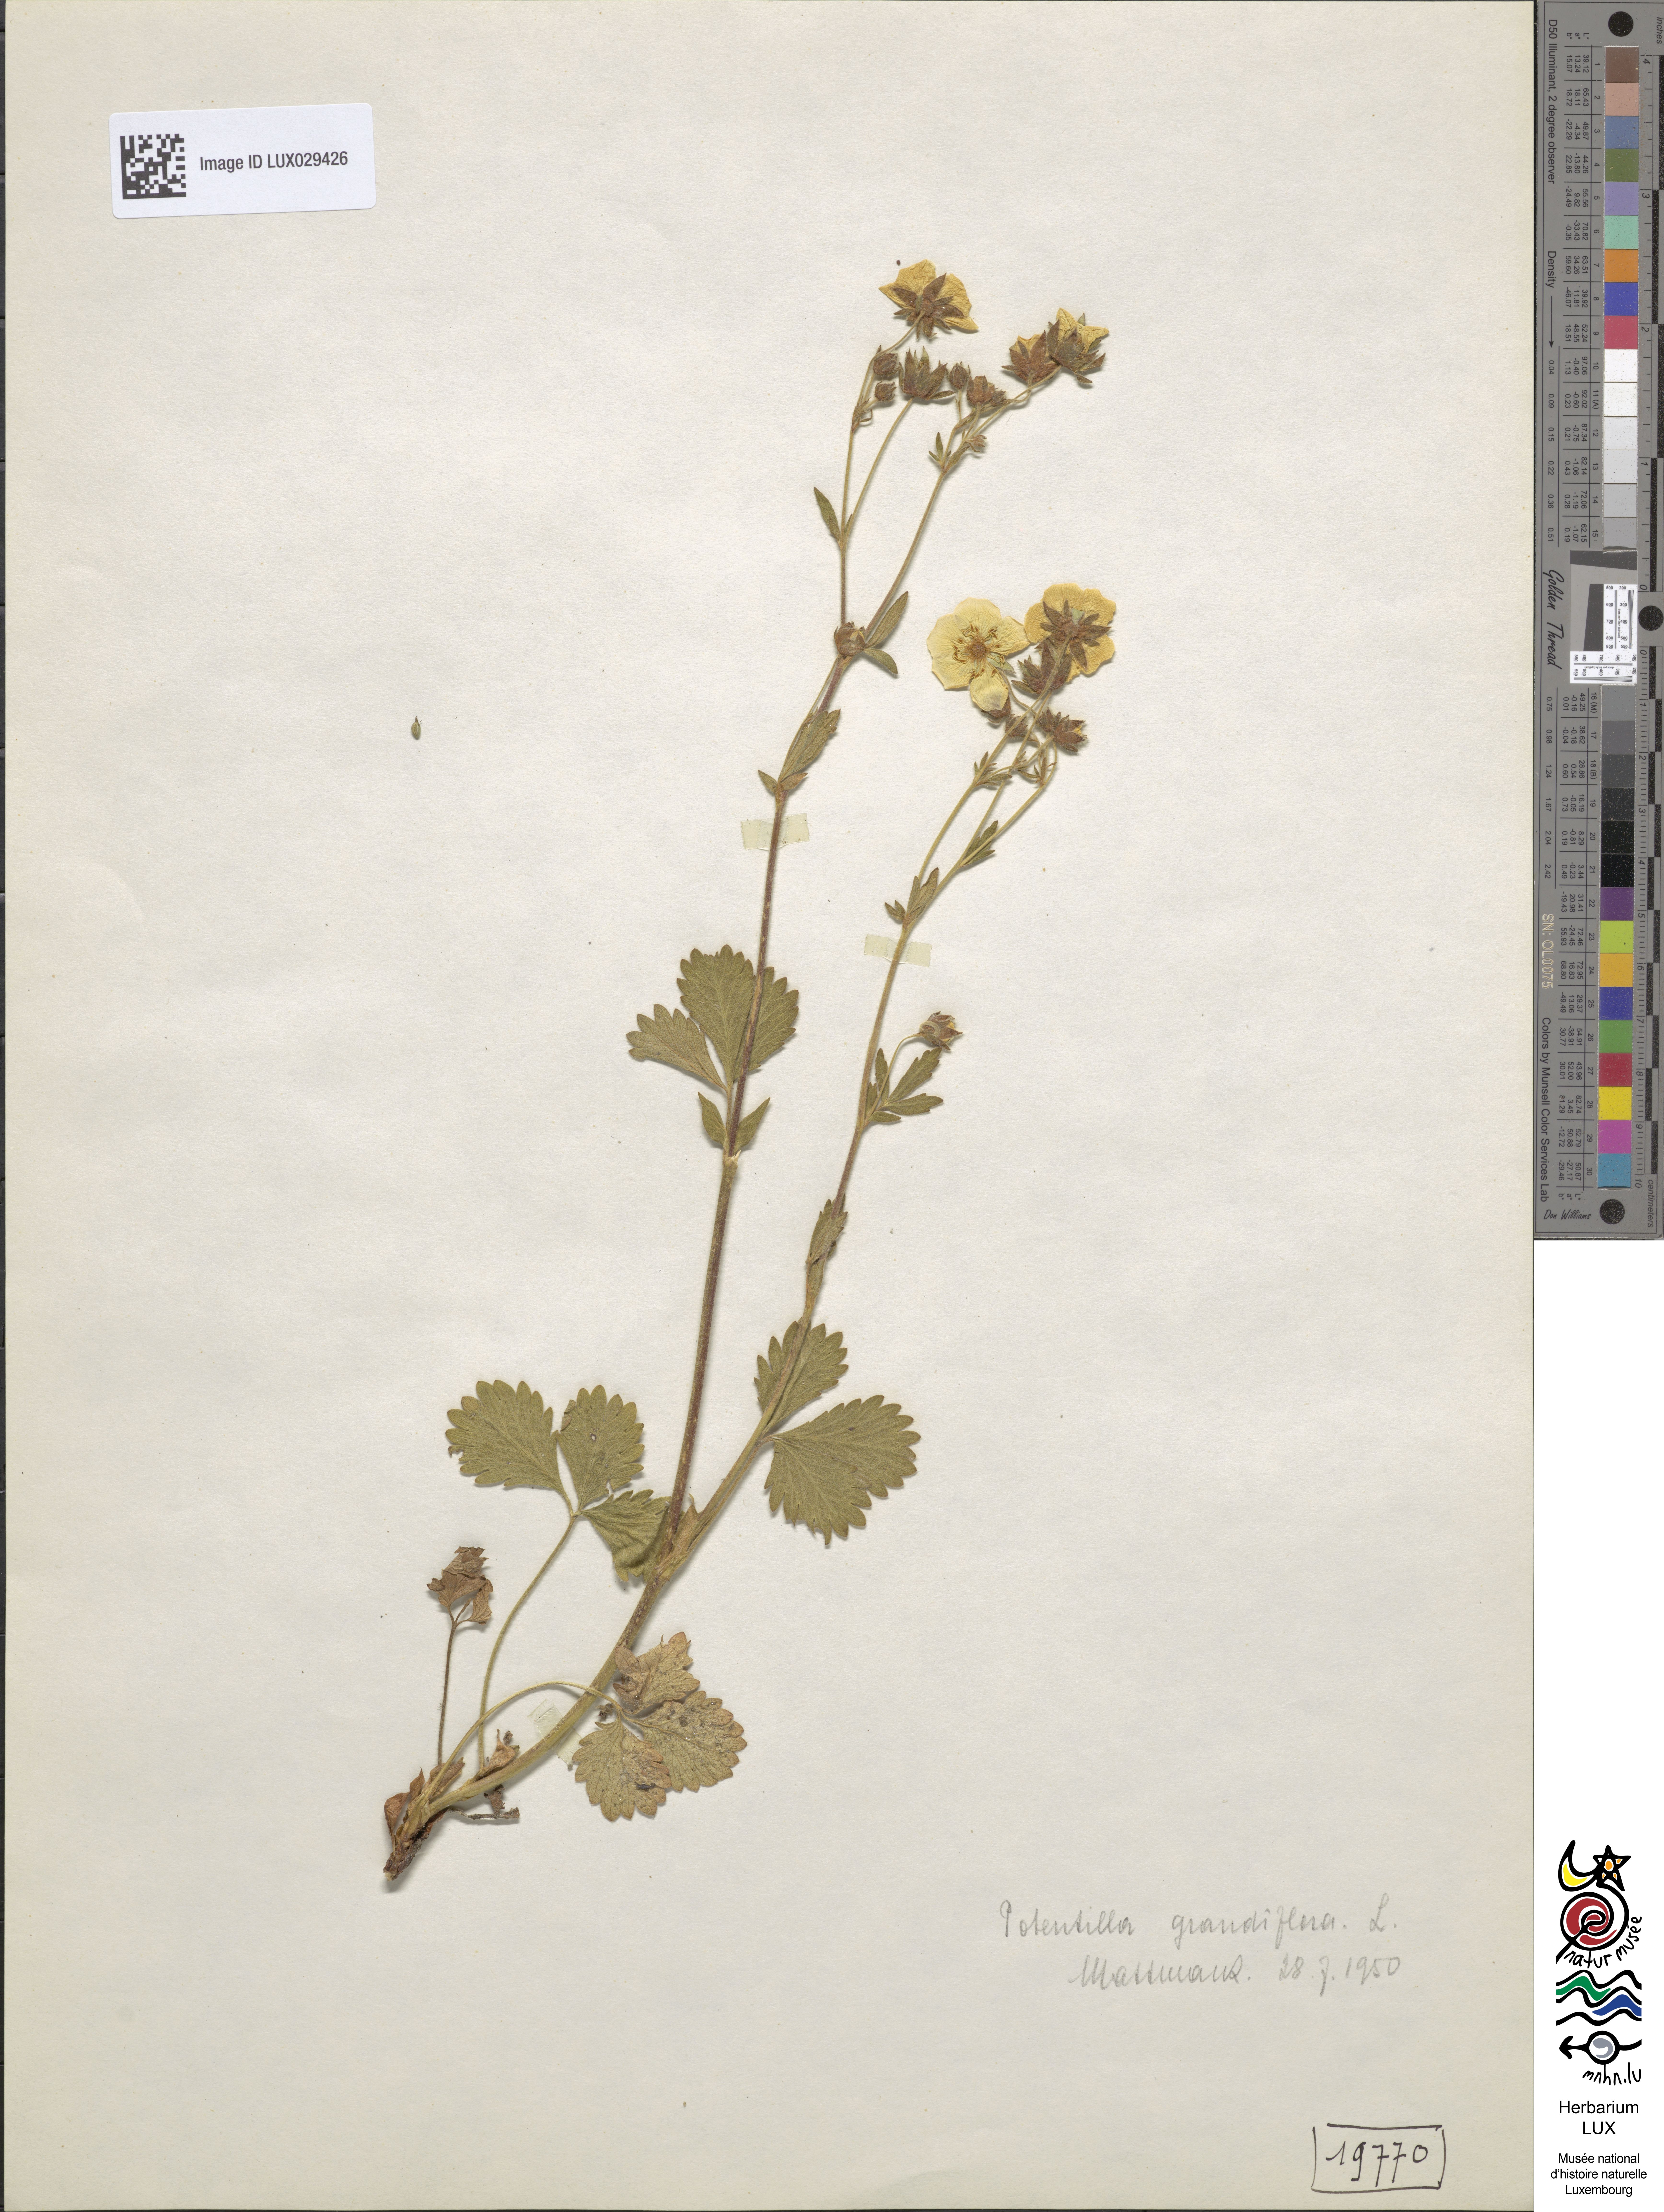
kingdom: Plantae
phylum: Tracheophyta
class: Magnoliopsida
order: Rosales
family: Rosaceae
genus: Potentilla
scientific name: Potentilla grandiflora
